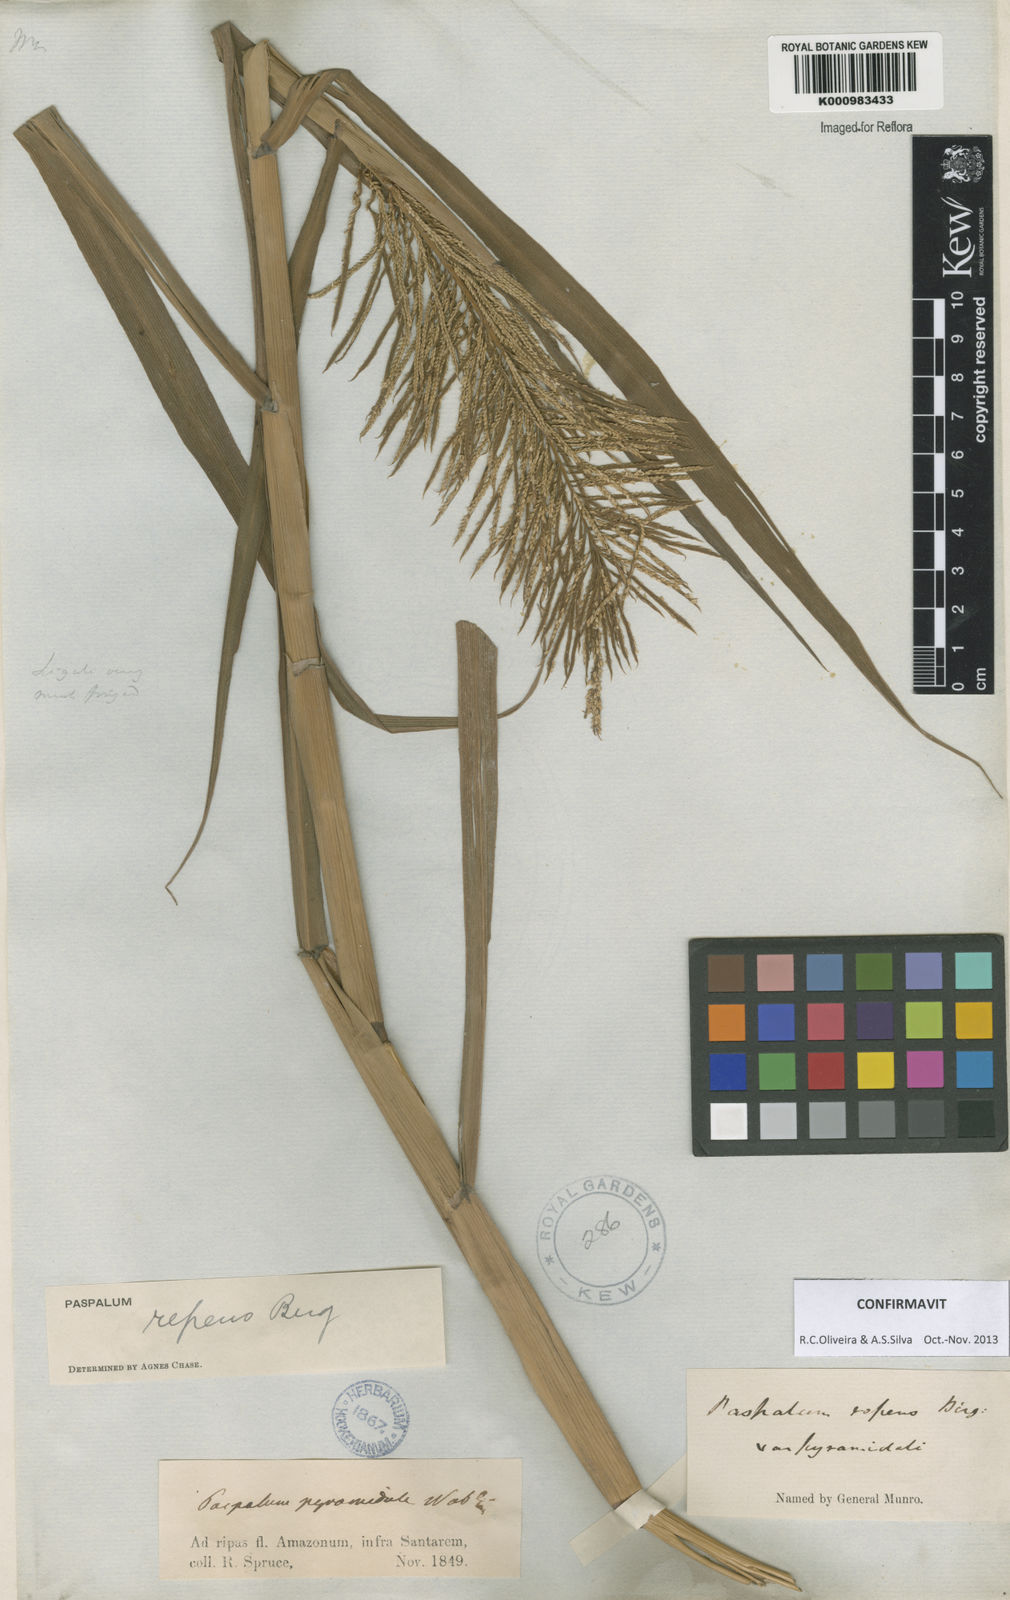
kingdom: Plantae
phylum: Tracheophyta
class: Liliopsida
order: Poales
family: Poaceae
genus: Paspalum
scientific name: Paspalum repens
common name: Water paspalum
